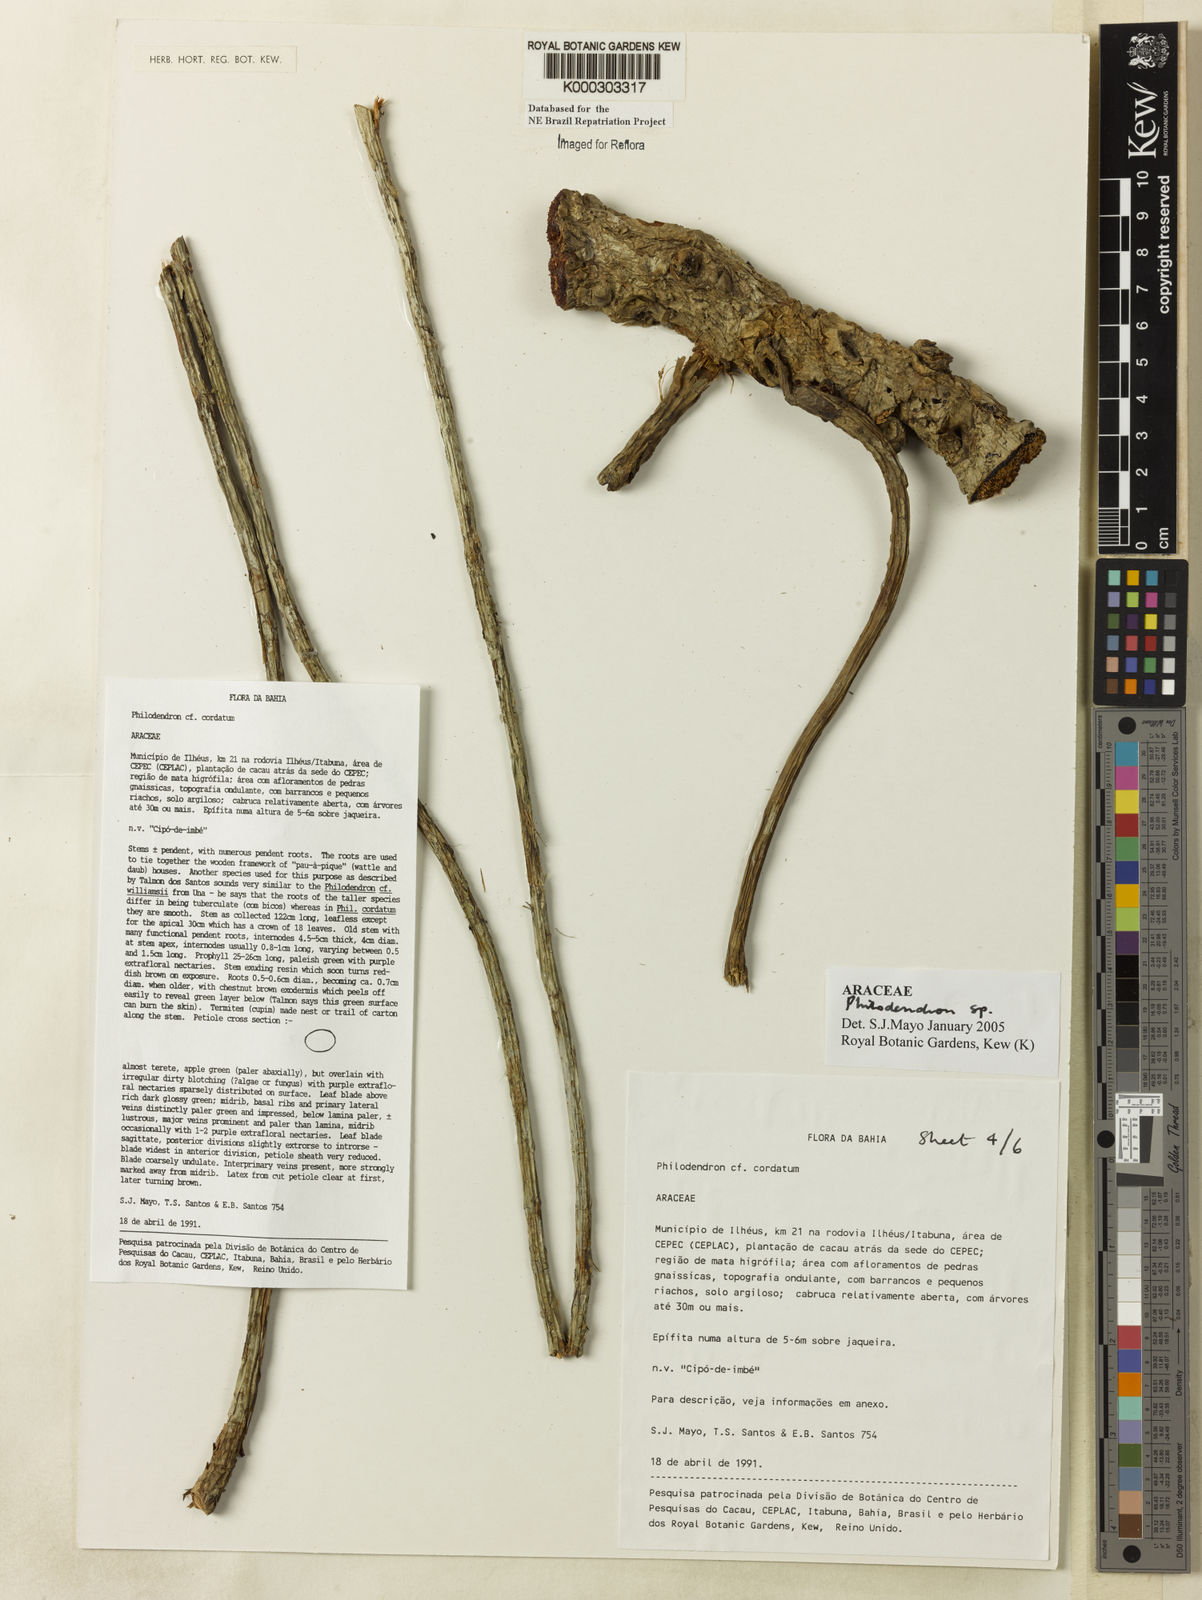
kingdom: Plantae
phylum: Tracheophyta
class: Liliopsida
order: Alismatales
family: Araceae
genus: Philodendron
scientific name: Philodendron
